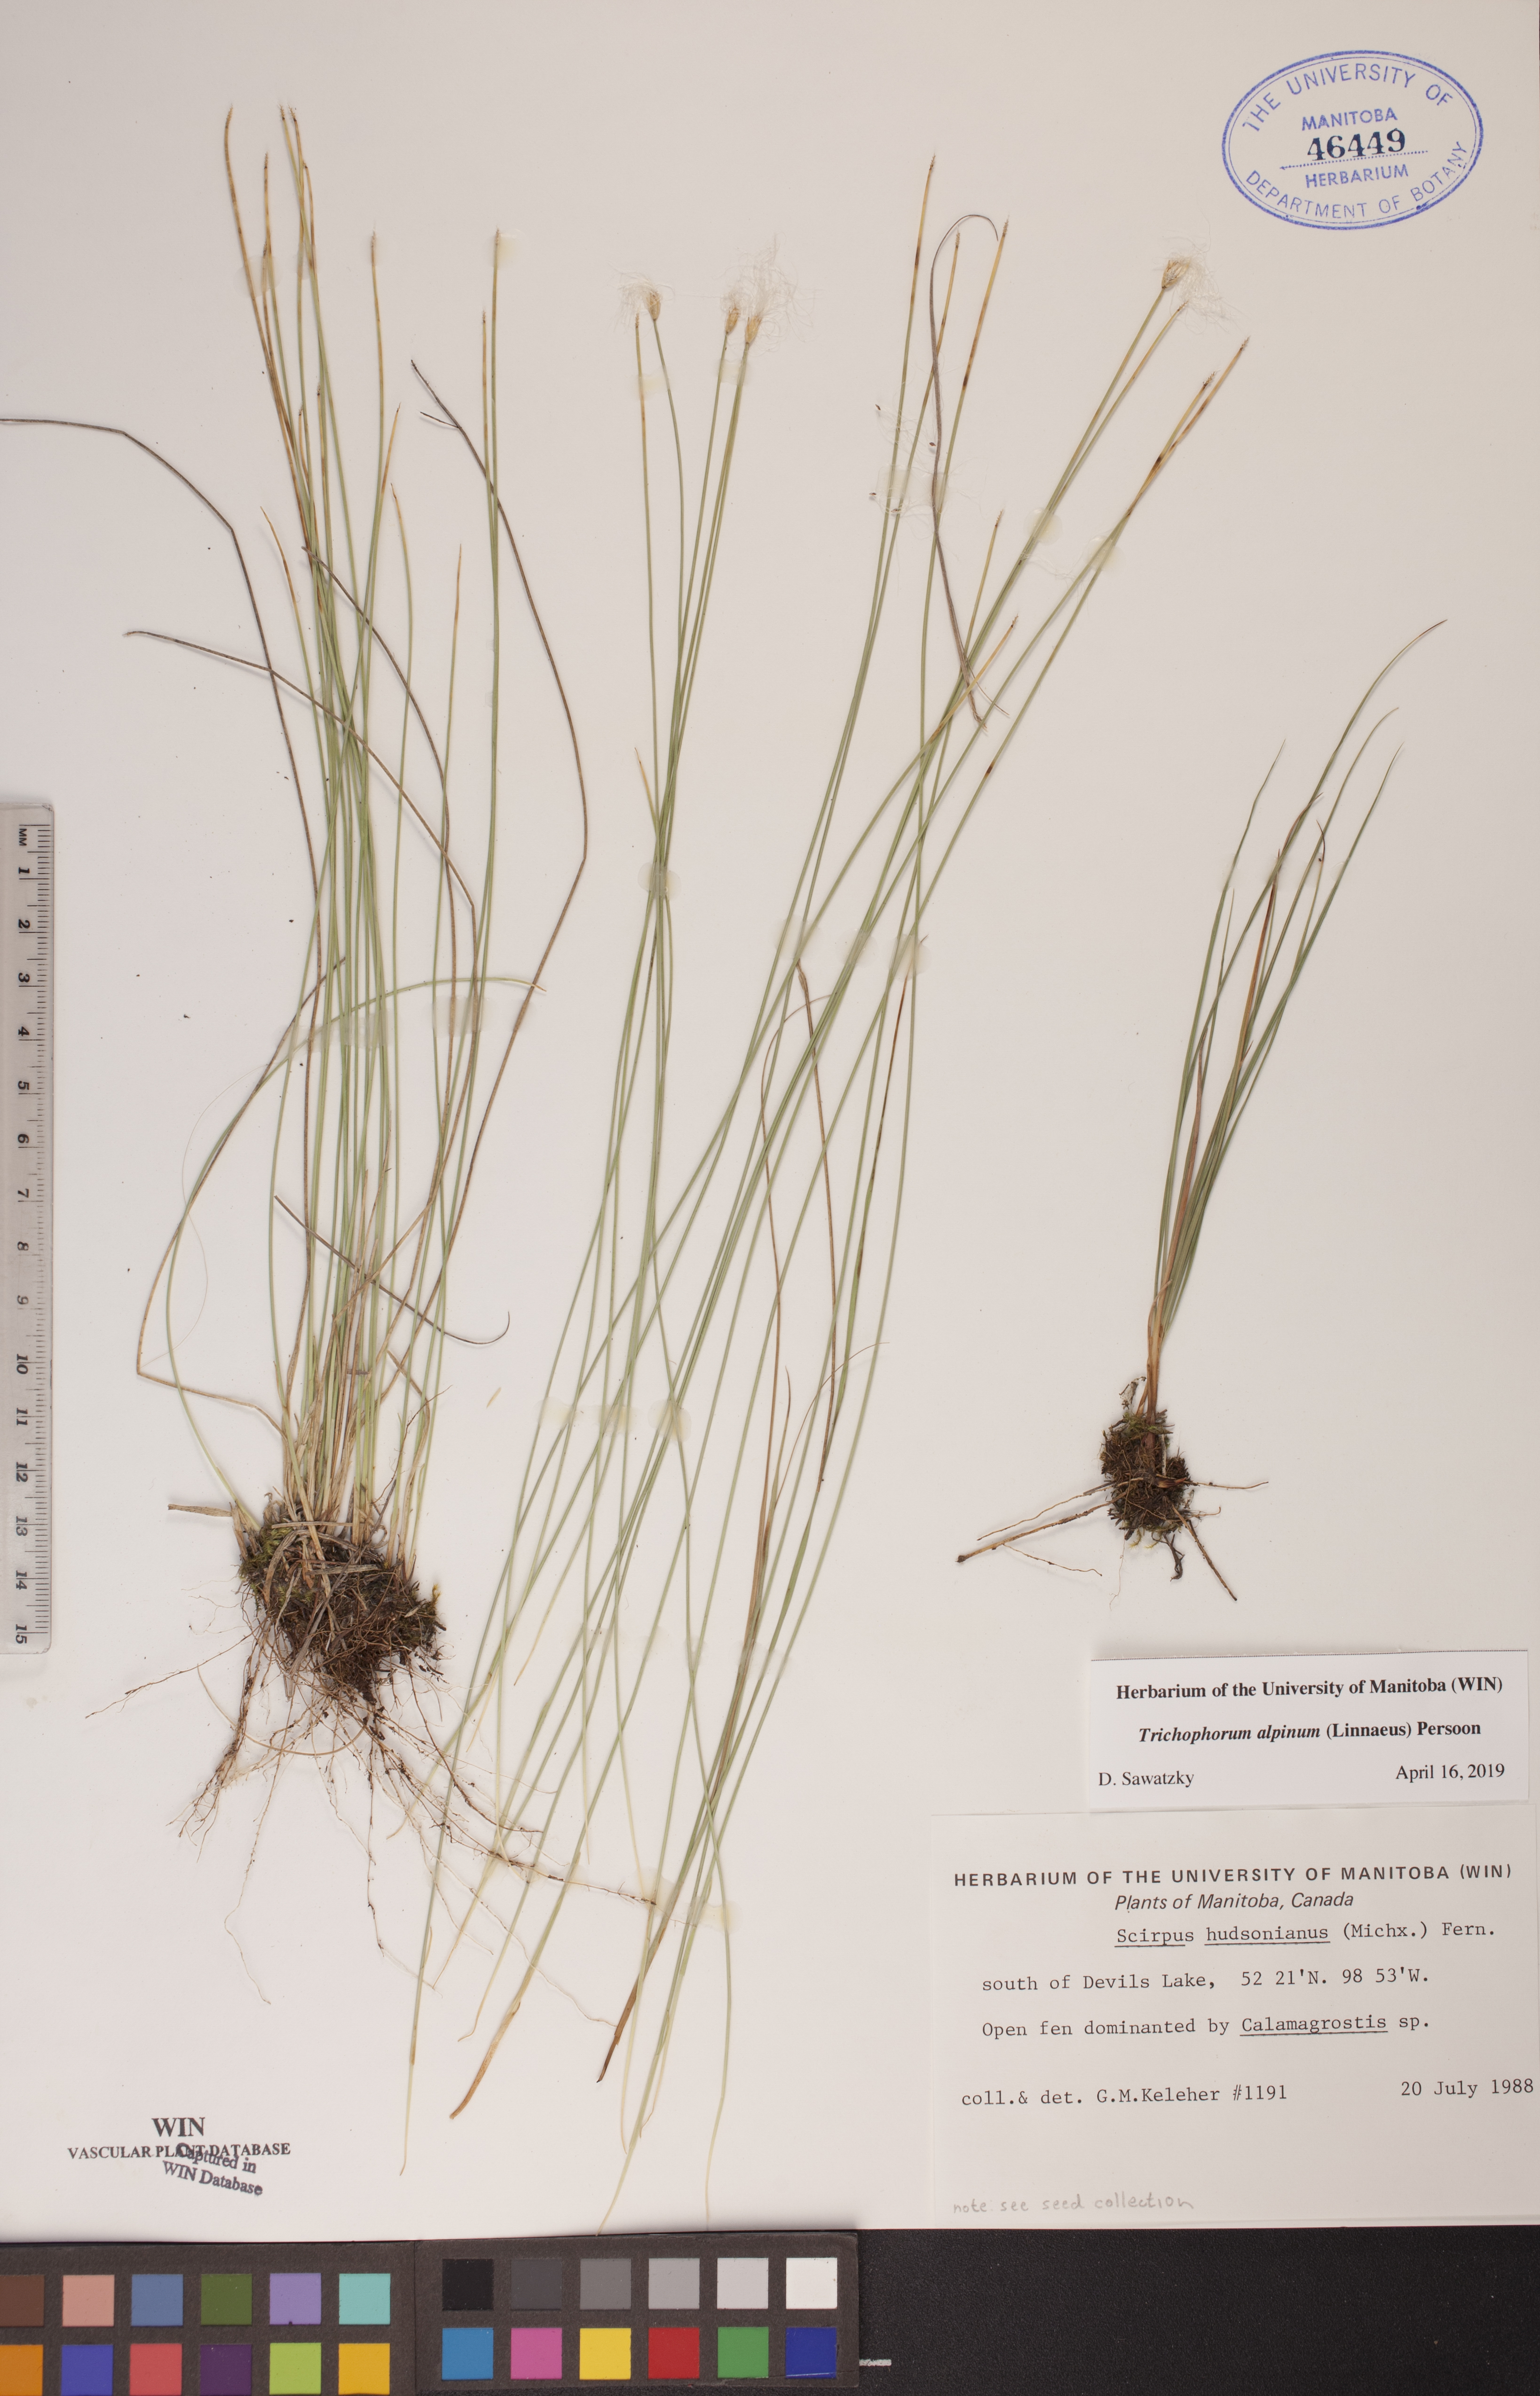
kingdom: Plantae
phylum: Tracheophyta
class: Liliopsida
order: Poales
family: Cyperaceae
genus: Trichophorum
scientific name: Trichophorum alpinum
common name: Alpine bulrush
